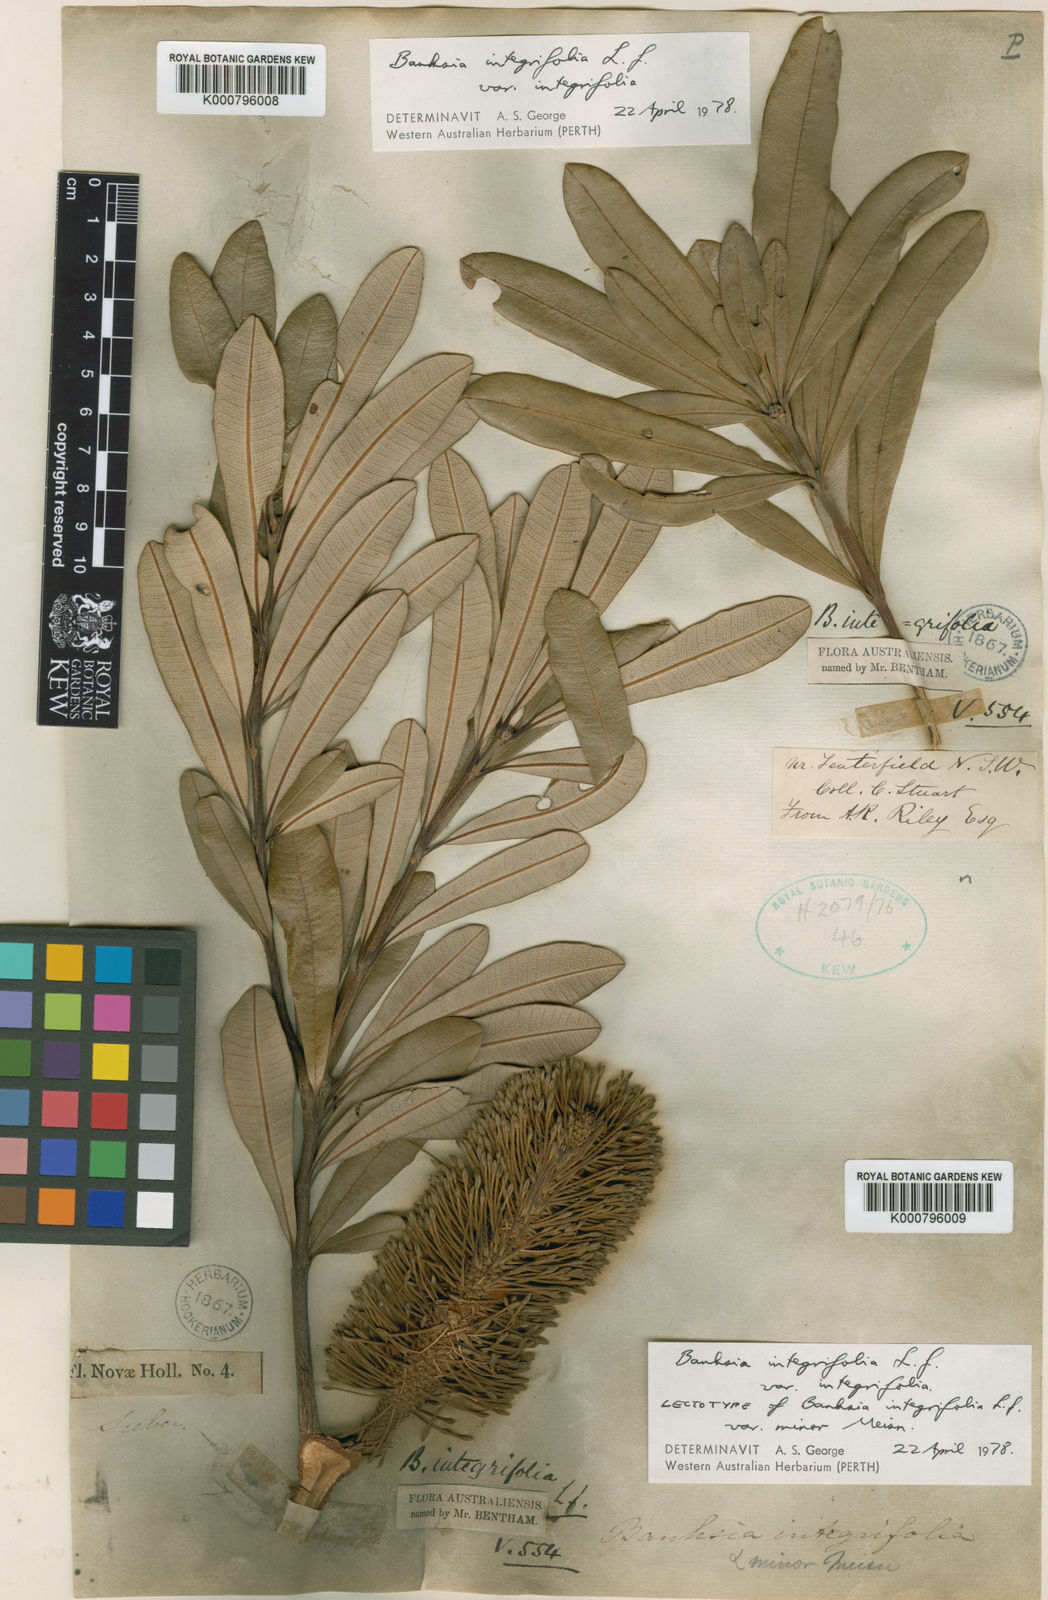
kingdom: Plantae
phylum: Tracheophyta
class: Magnoliopsida
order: Proteales
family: Proteaceae
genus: Banksia
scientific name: Banksia integrifolia
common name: White-honeysuckle
